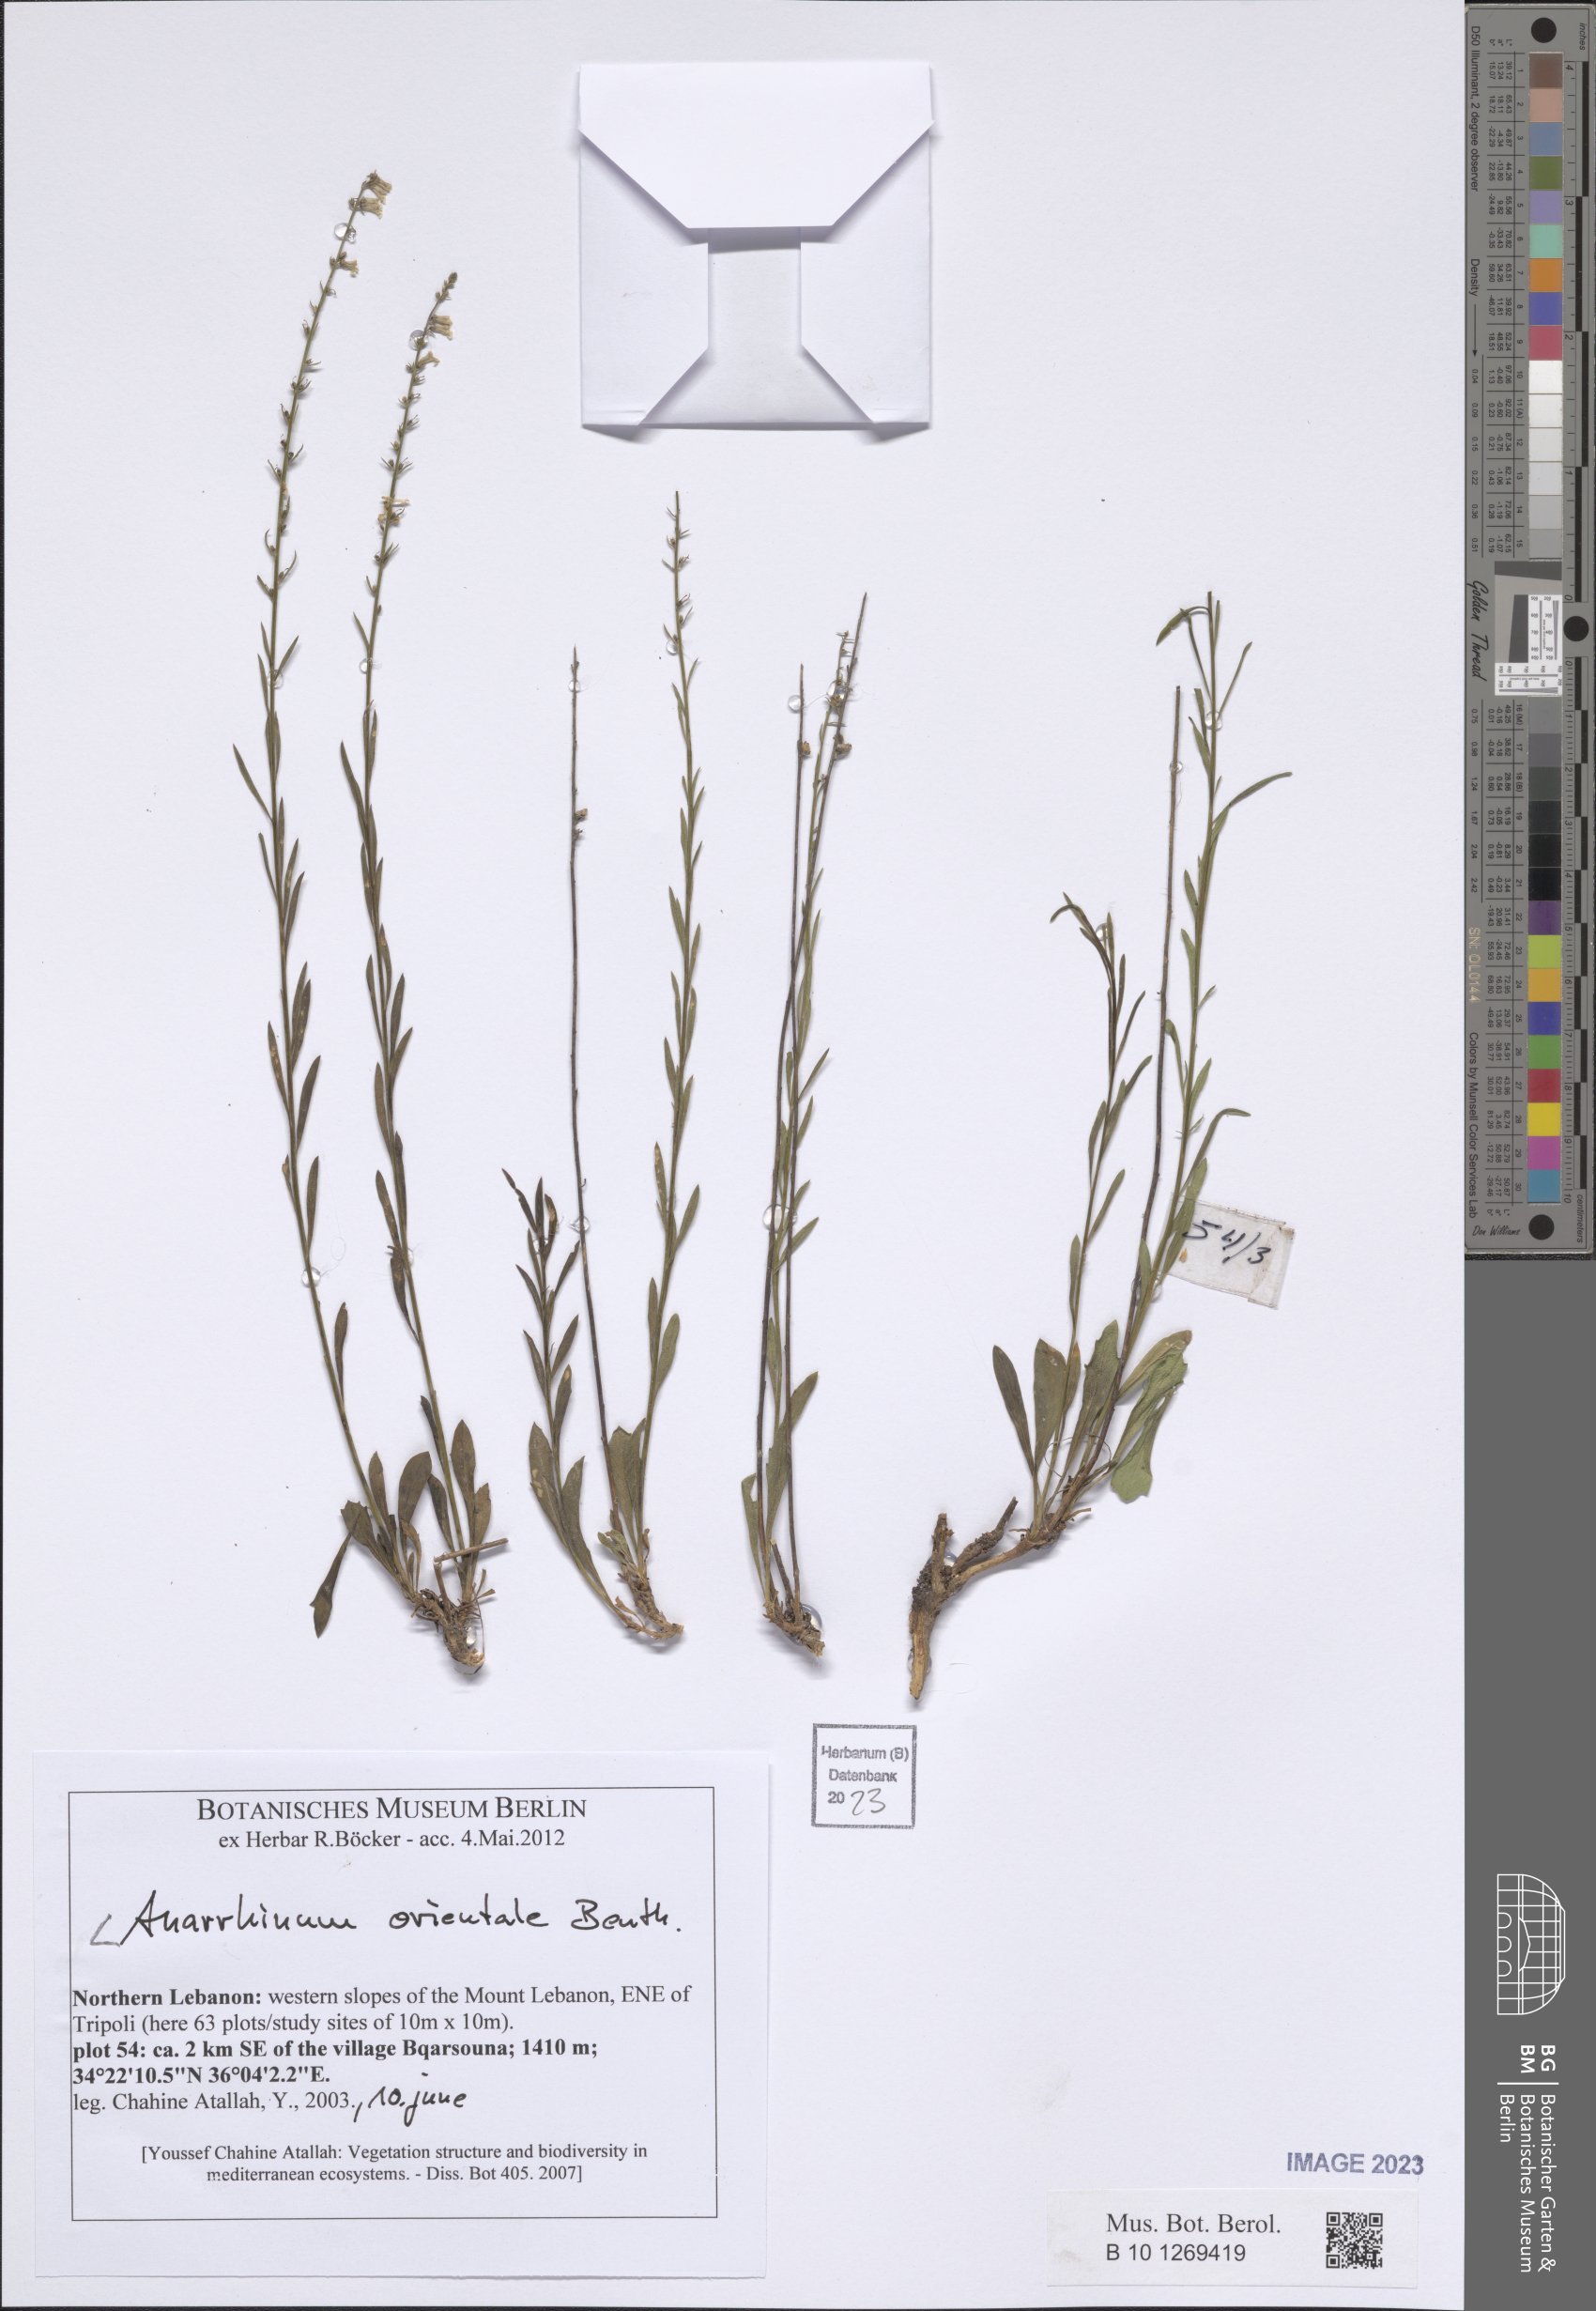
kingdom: Plantae
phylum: Tracheophyta
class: Magnoliopsida
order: Lamiales
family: Plantaginaceae
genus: Anarrhinum
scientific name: Anarrhinum forskaohlii
